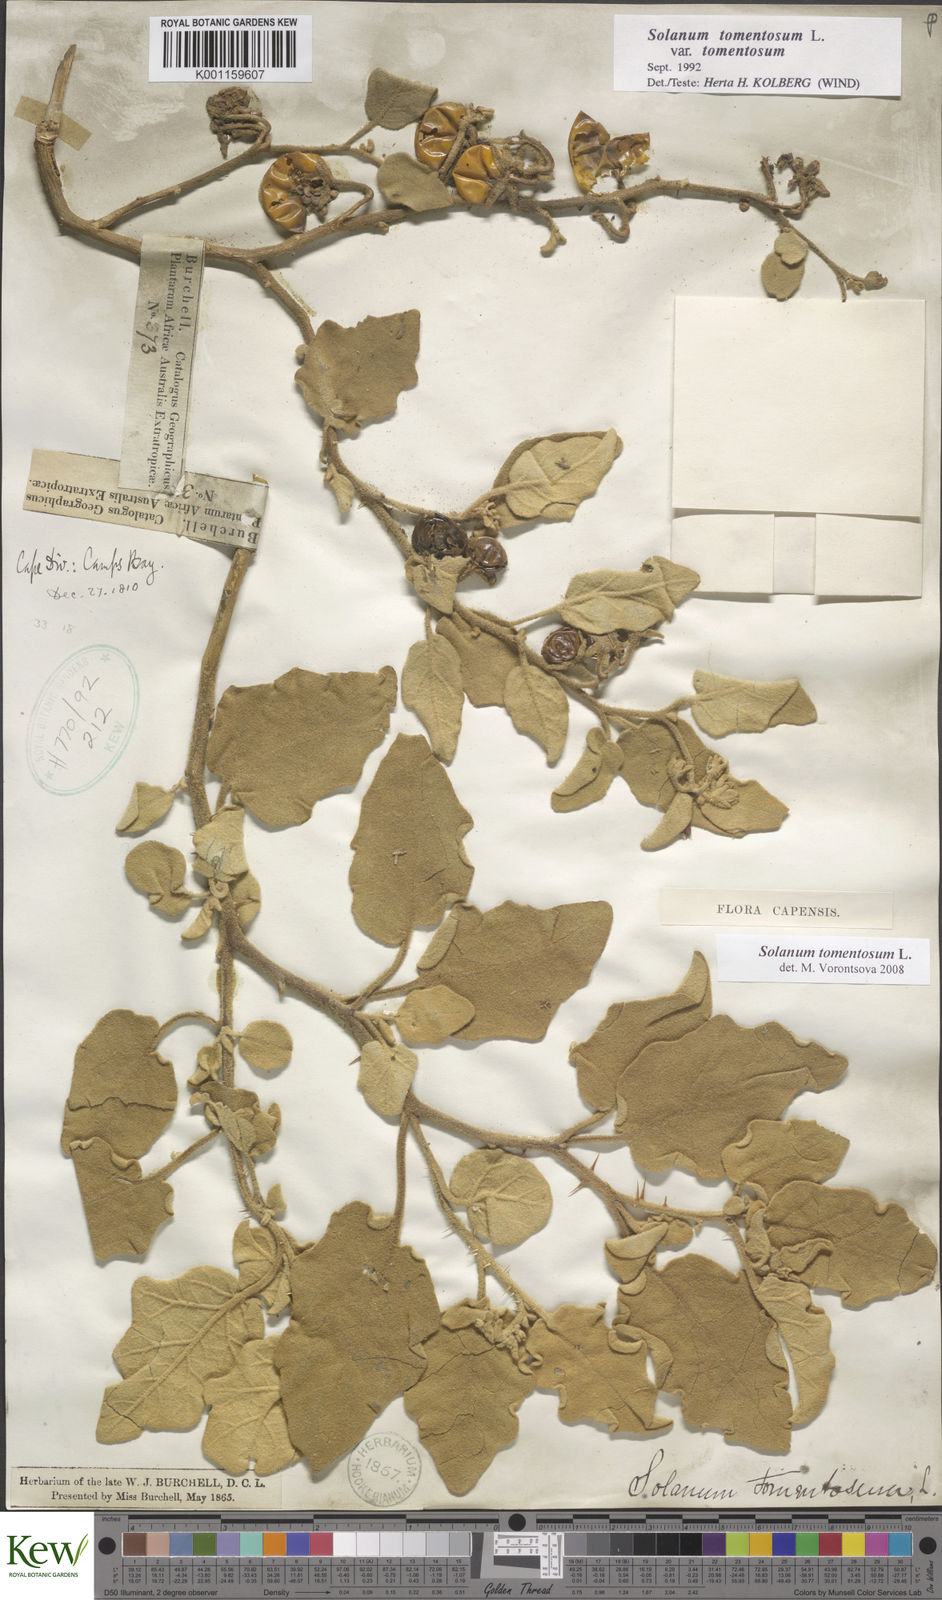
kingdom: Plantae
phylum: Tracheophyta
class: Magnoliopsida
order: Solanales
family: Solanaceae
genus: Solanum
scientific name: Solanum tomentosum
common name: Wild aubergine
